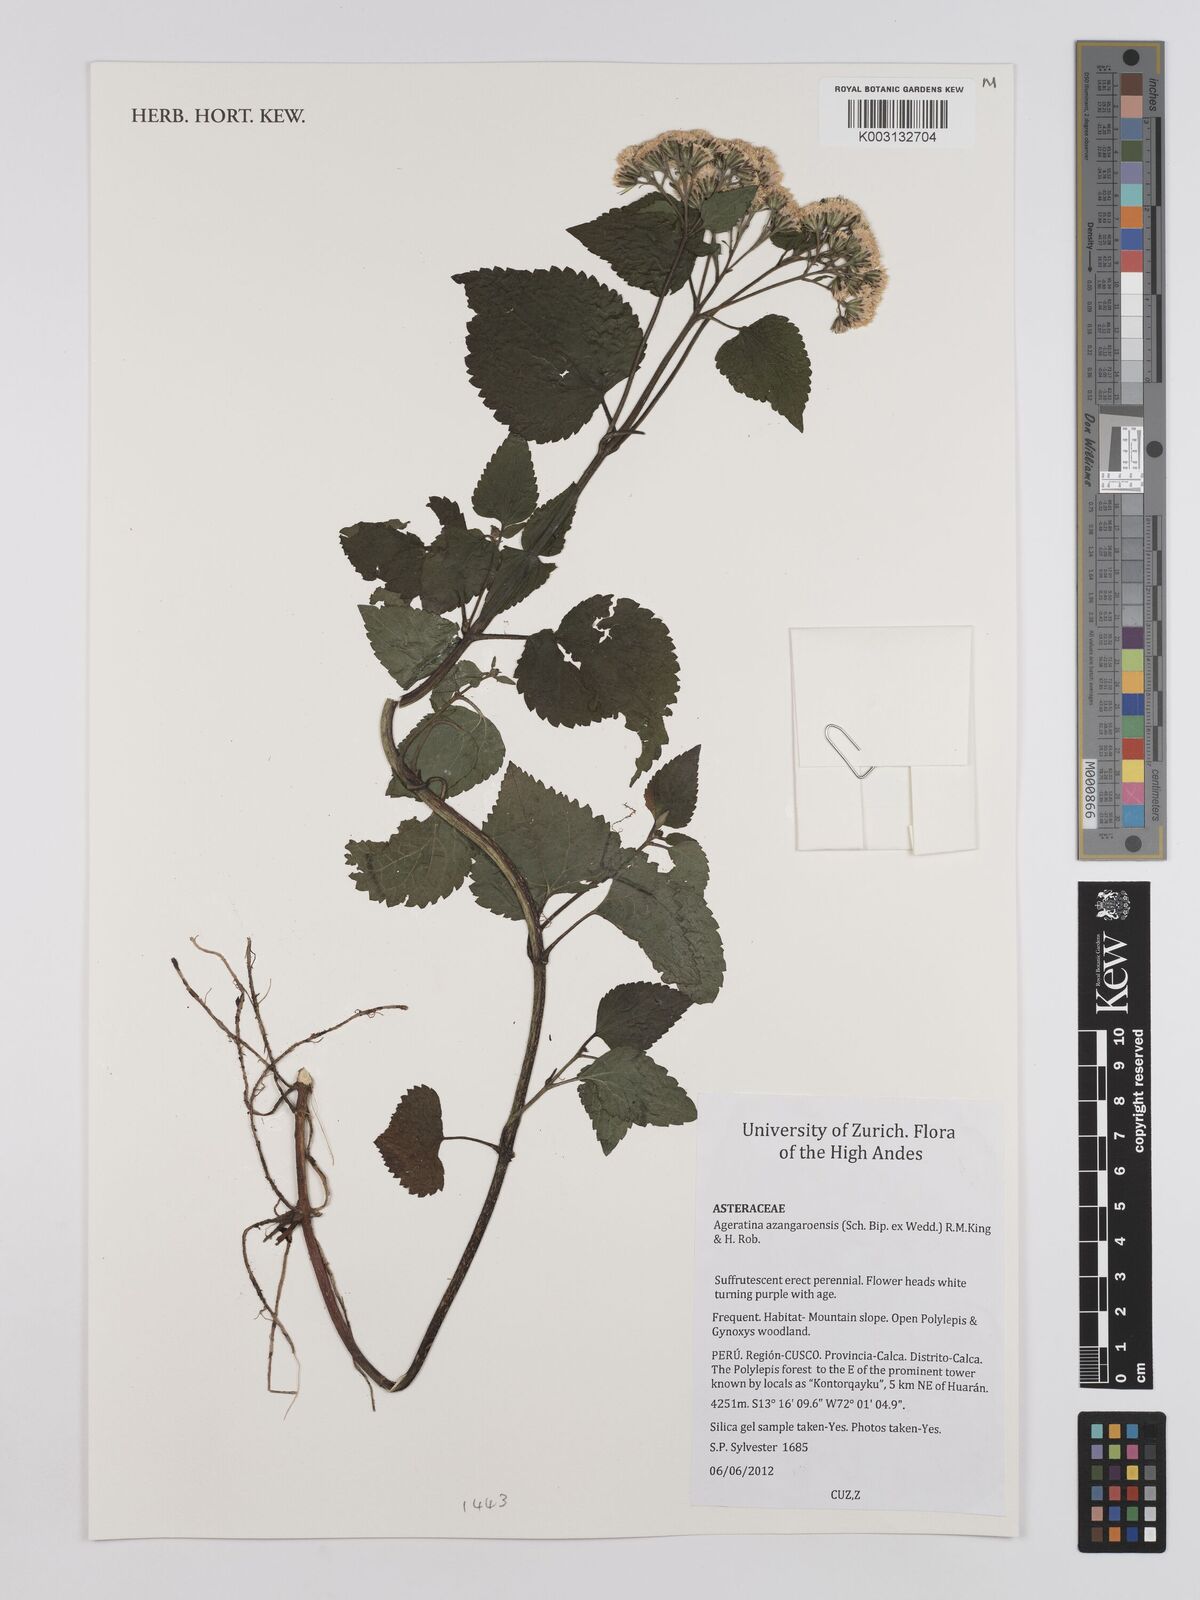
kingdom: Plantae
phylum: Tracheophyta
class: Magnoliopsida
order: Asterales
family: Asteraceae
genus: Ageratina
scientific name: Ageratina glechonophylla
